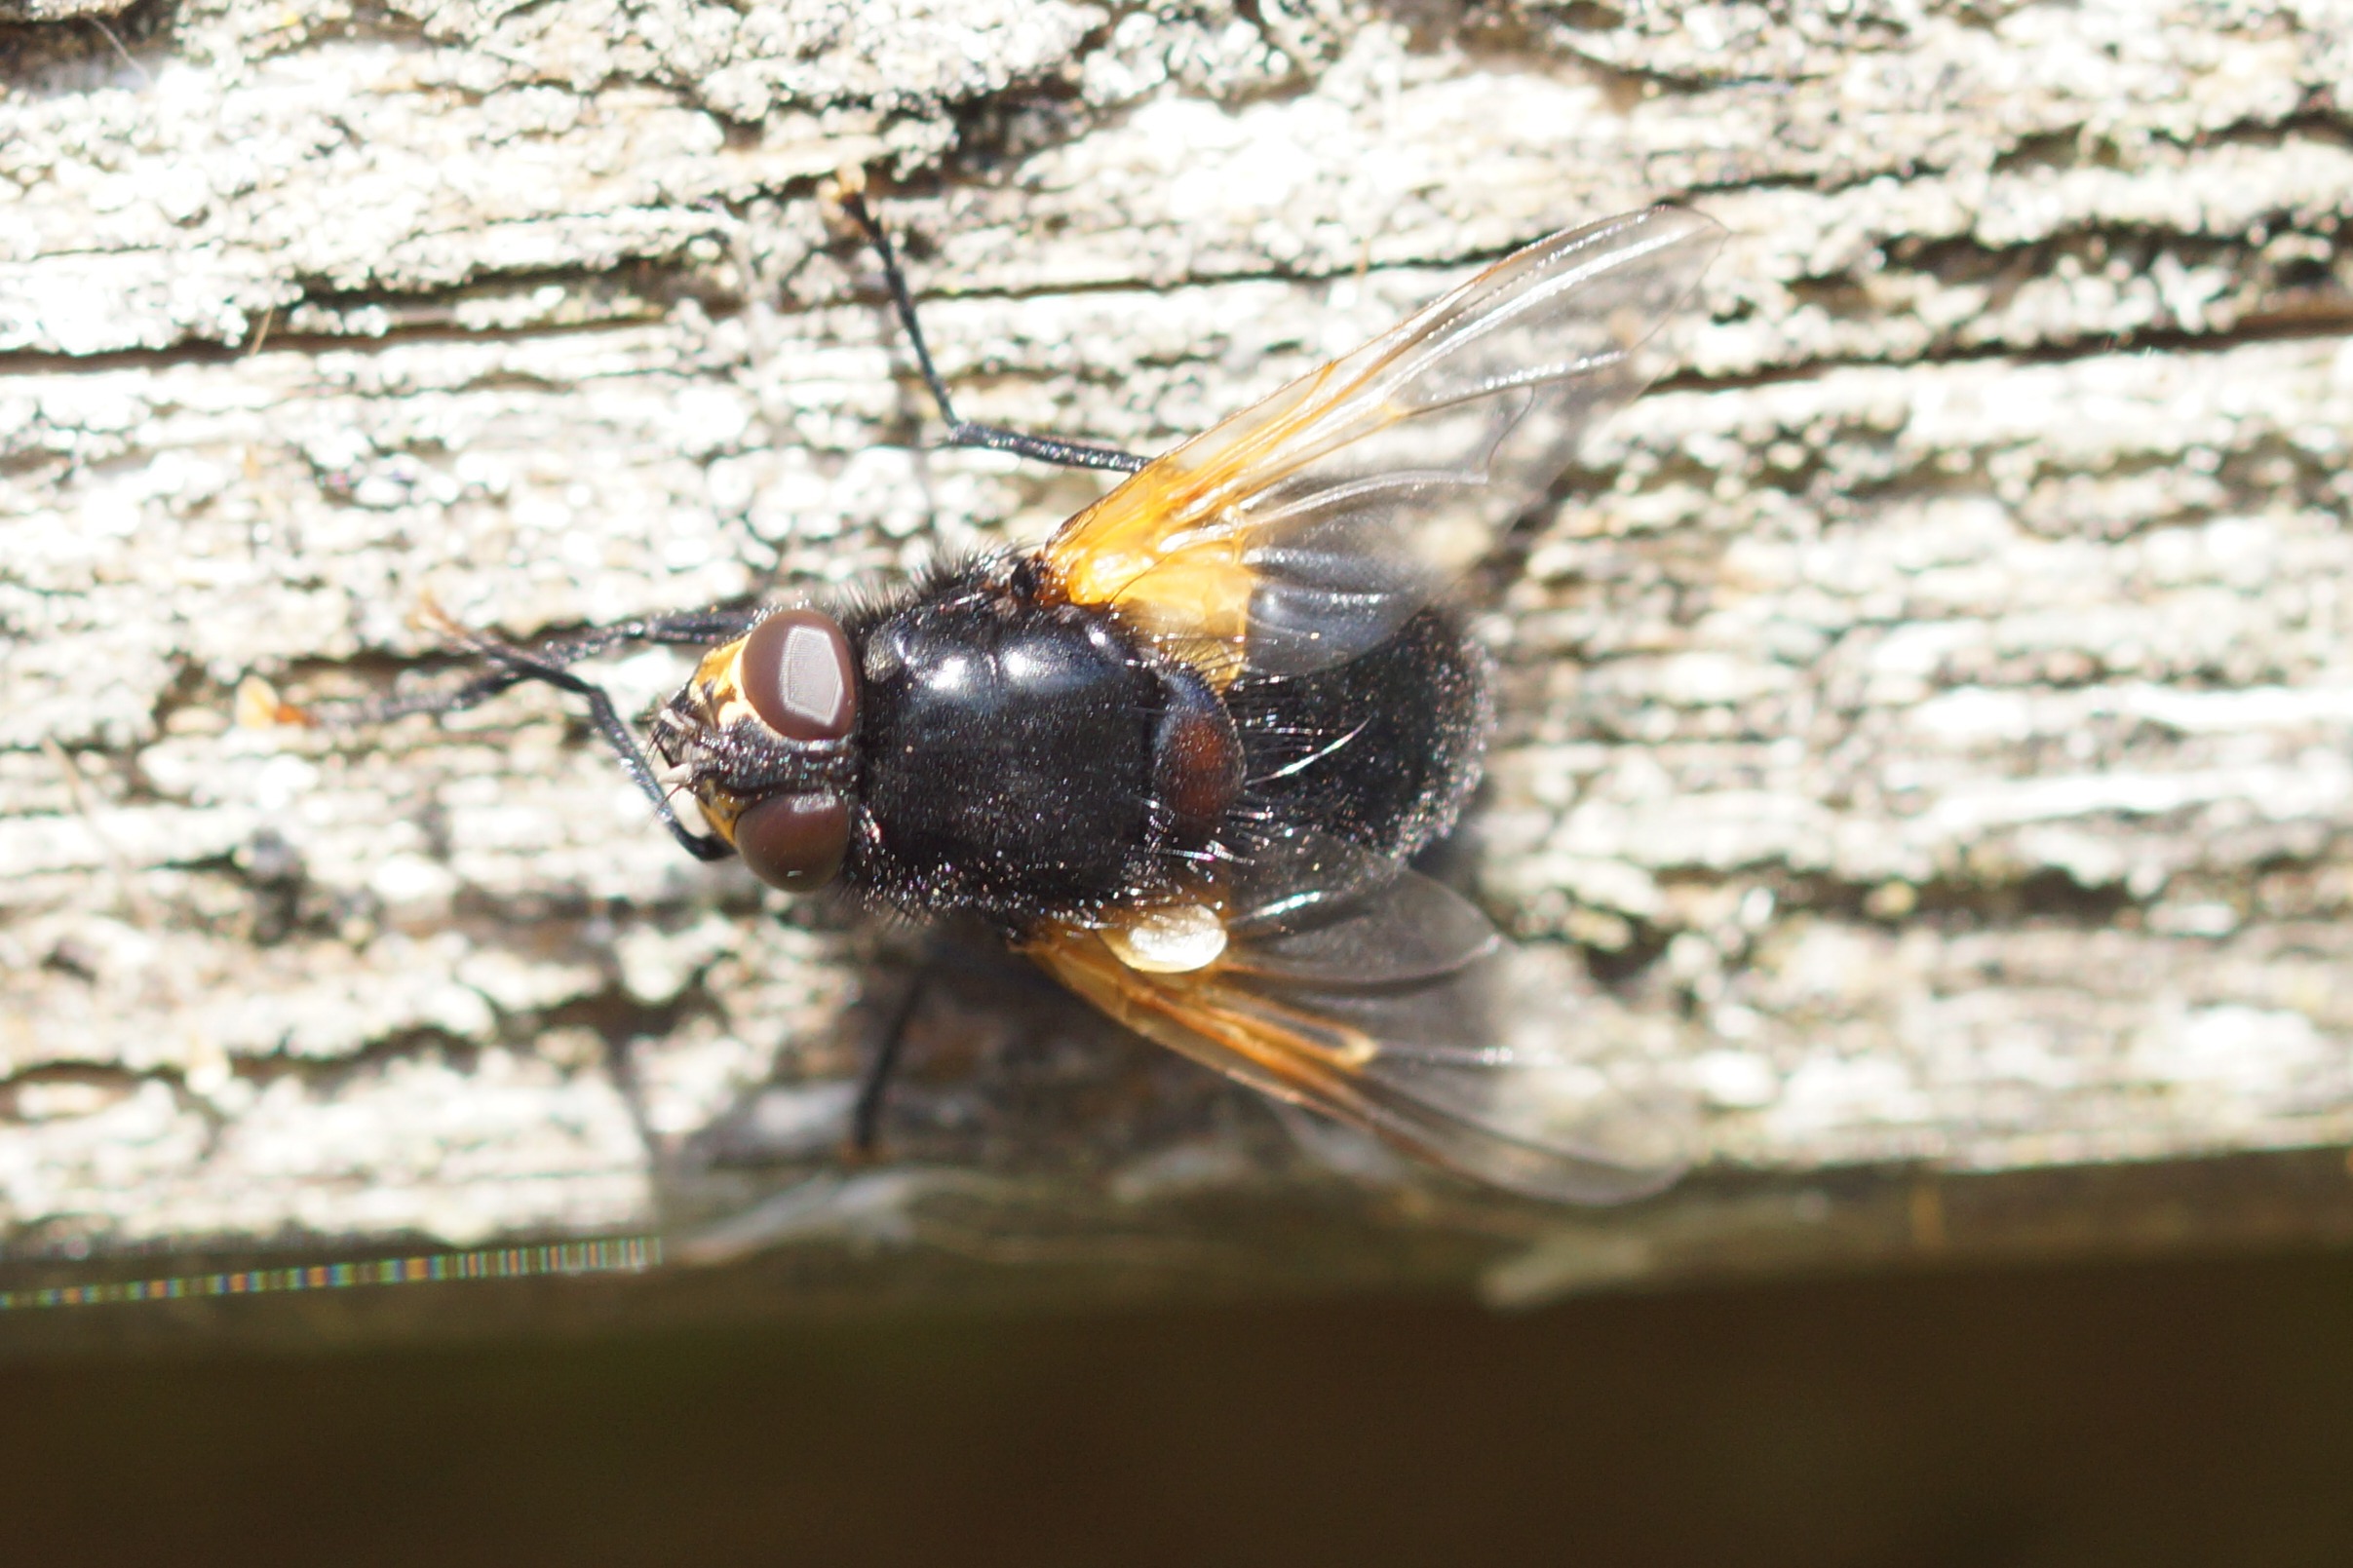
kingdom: Animalia
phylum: Arthropoda
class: Insecta
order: Diptera
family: Muscidae
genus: Mesembrina
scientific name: Mesembrina meridiana
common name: Gulvinget flue
